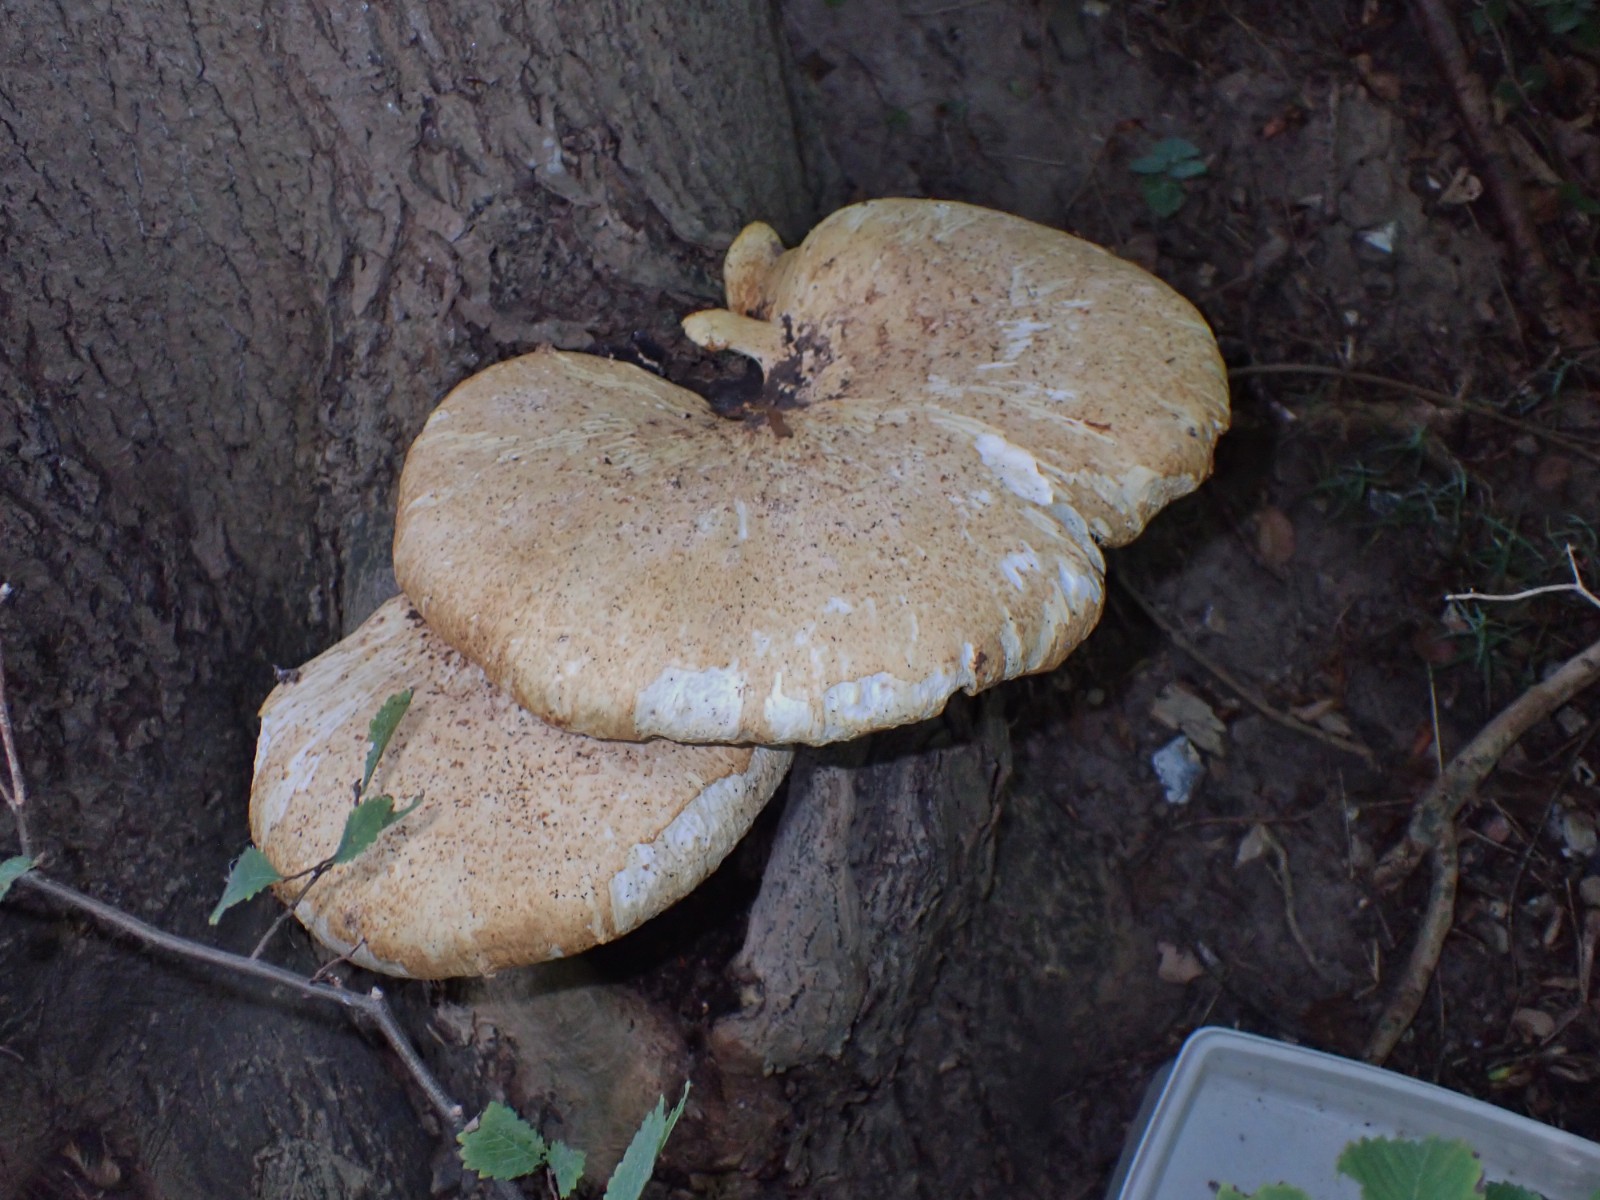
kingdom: Fungi
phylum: Basidiomycota
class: Agaricomycetes
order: Polyporales
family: Polyporaceae
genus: Cerioporus
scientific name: Cerioporus squamosus
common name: skællet stilkporesvamp
